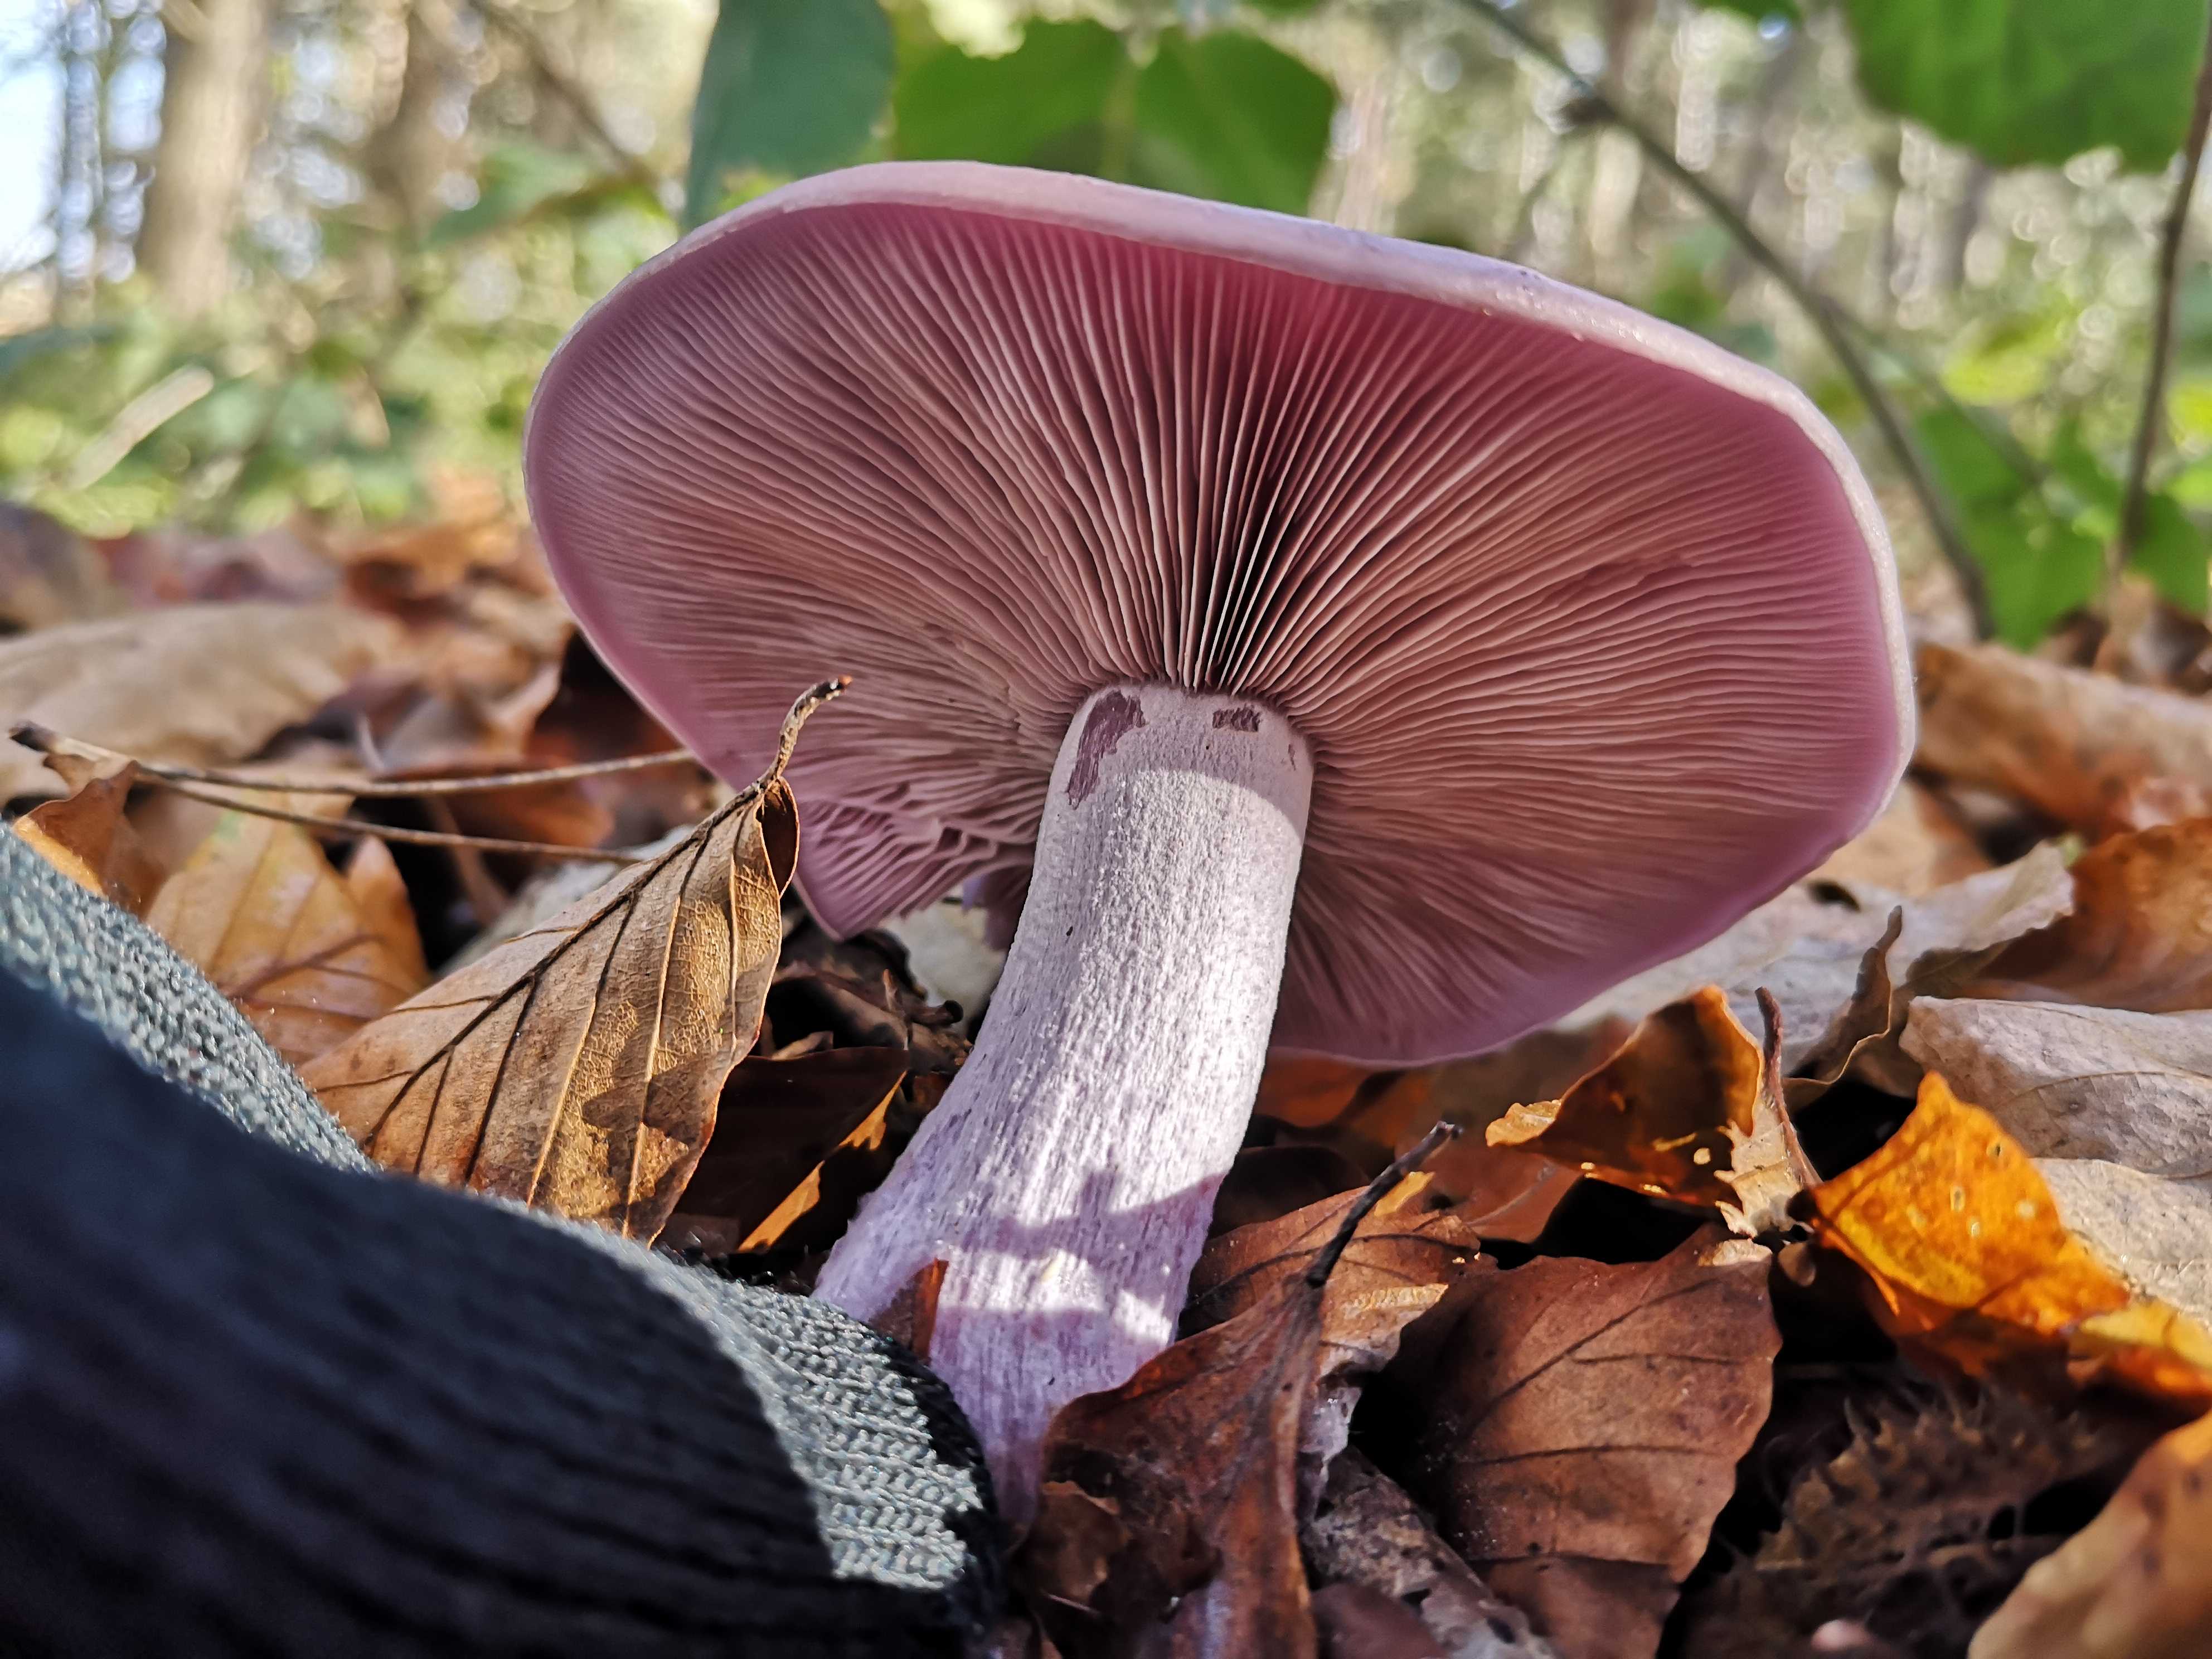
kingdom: Fungi
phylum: Basidiomycota
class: Agaricomycetes
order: Agaricales
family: Tricholomataceae
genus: Lepista
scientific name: Lepista nuda
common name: violet hekseringshat
